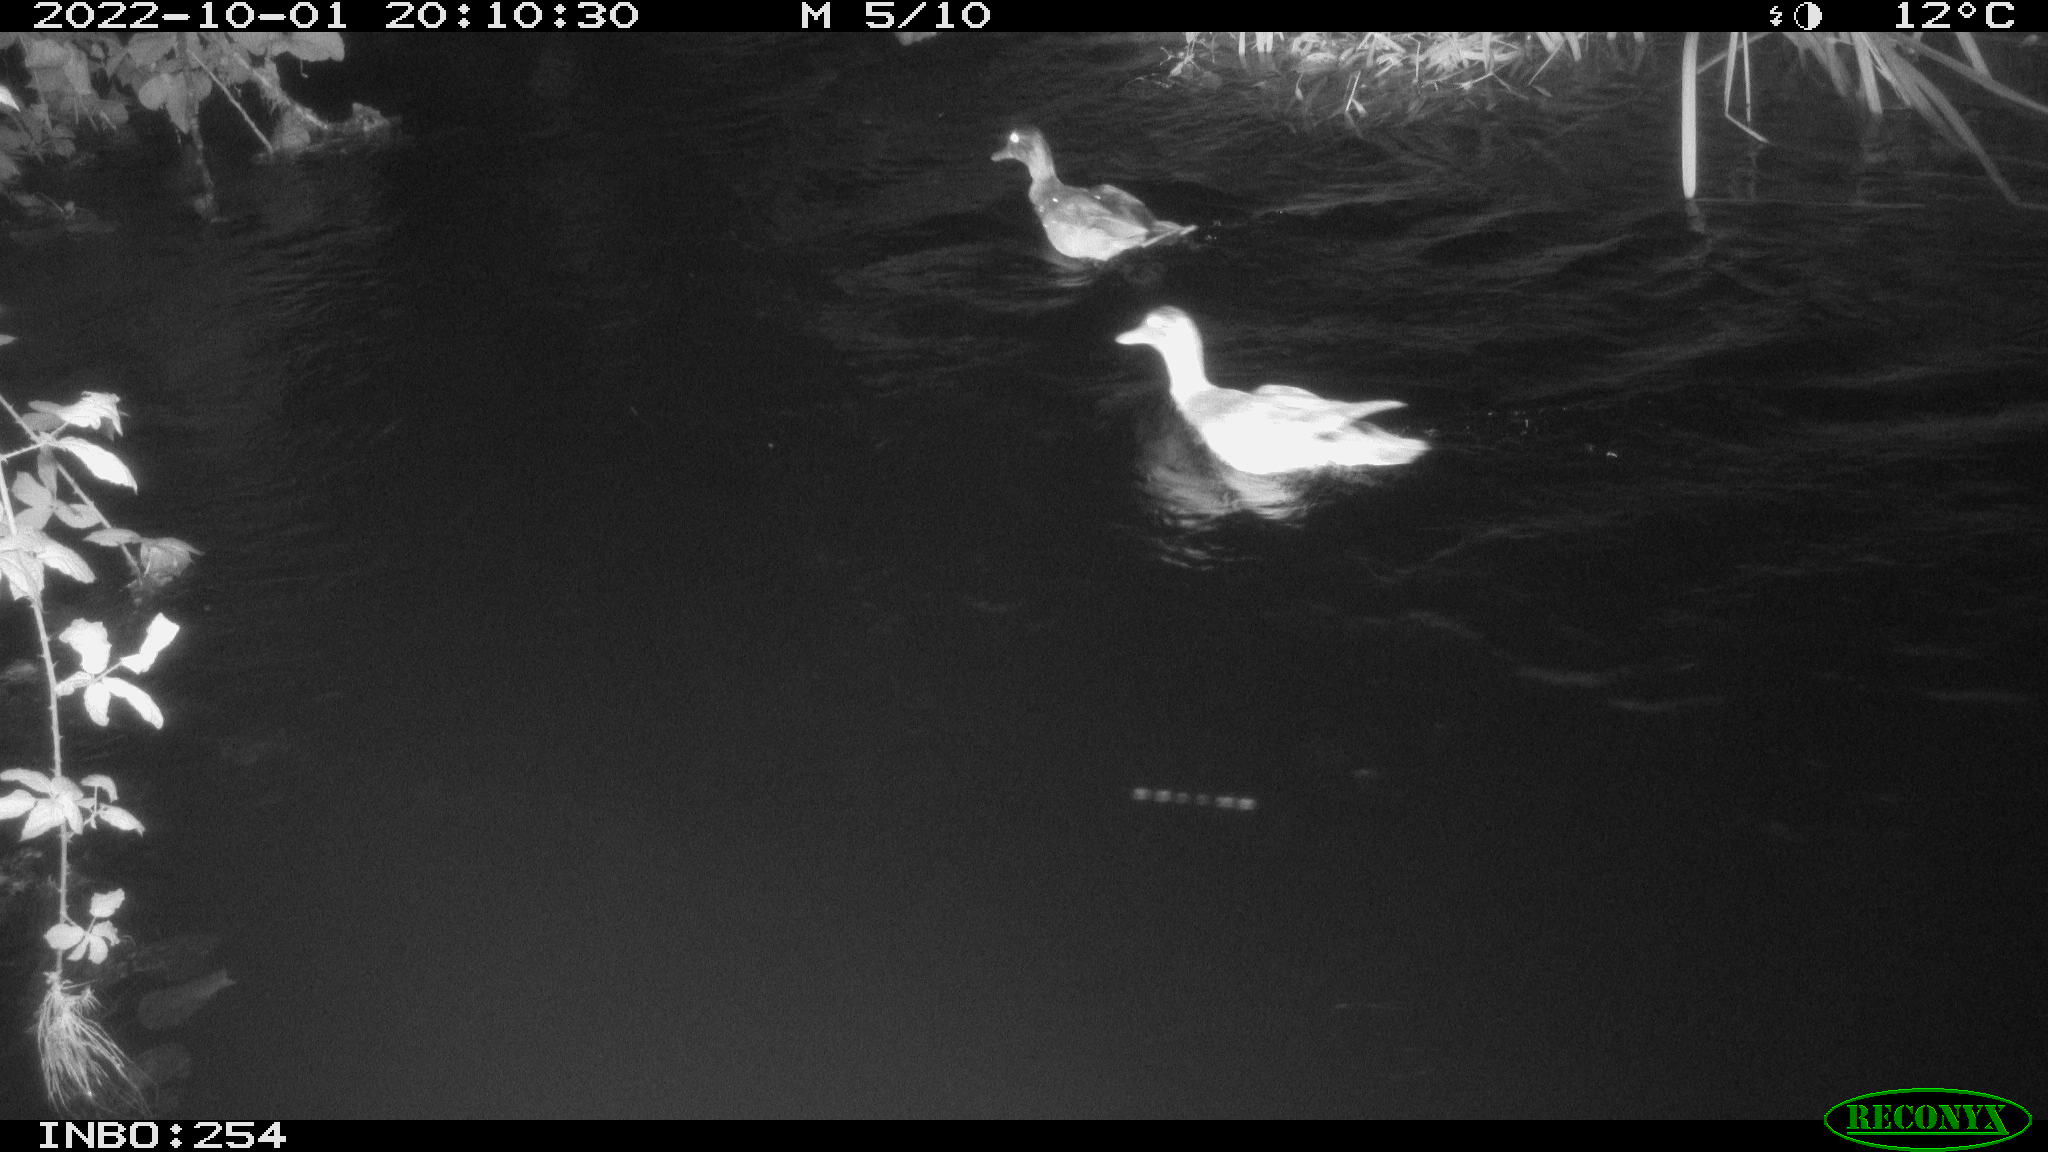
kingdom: Animalia
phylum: Chordata
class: Aves
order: Anseriformes
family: Anatidae
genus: Anas
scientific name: Anas
